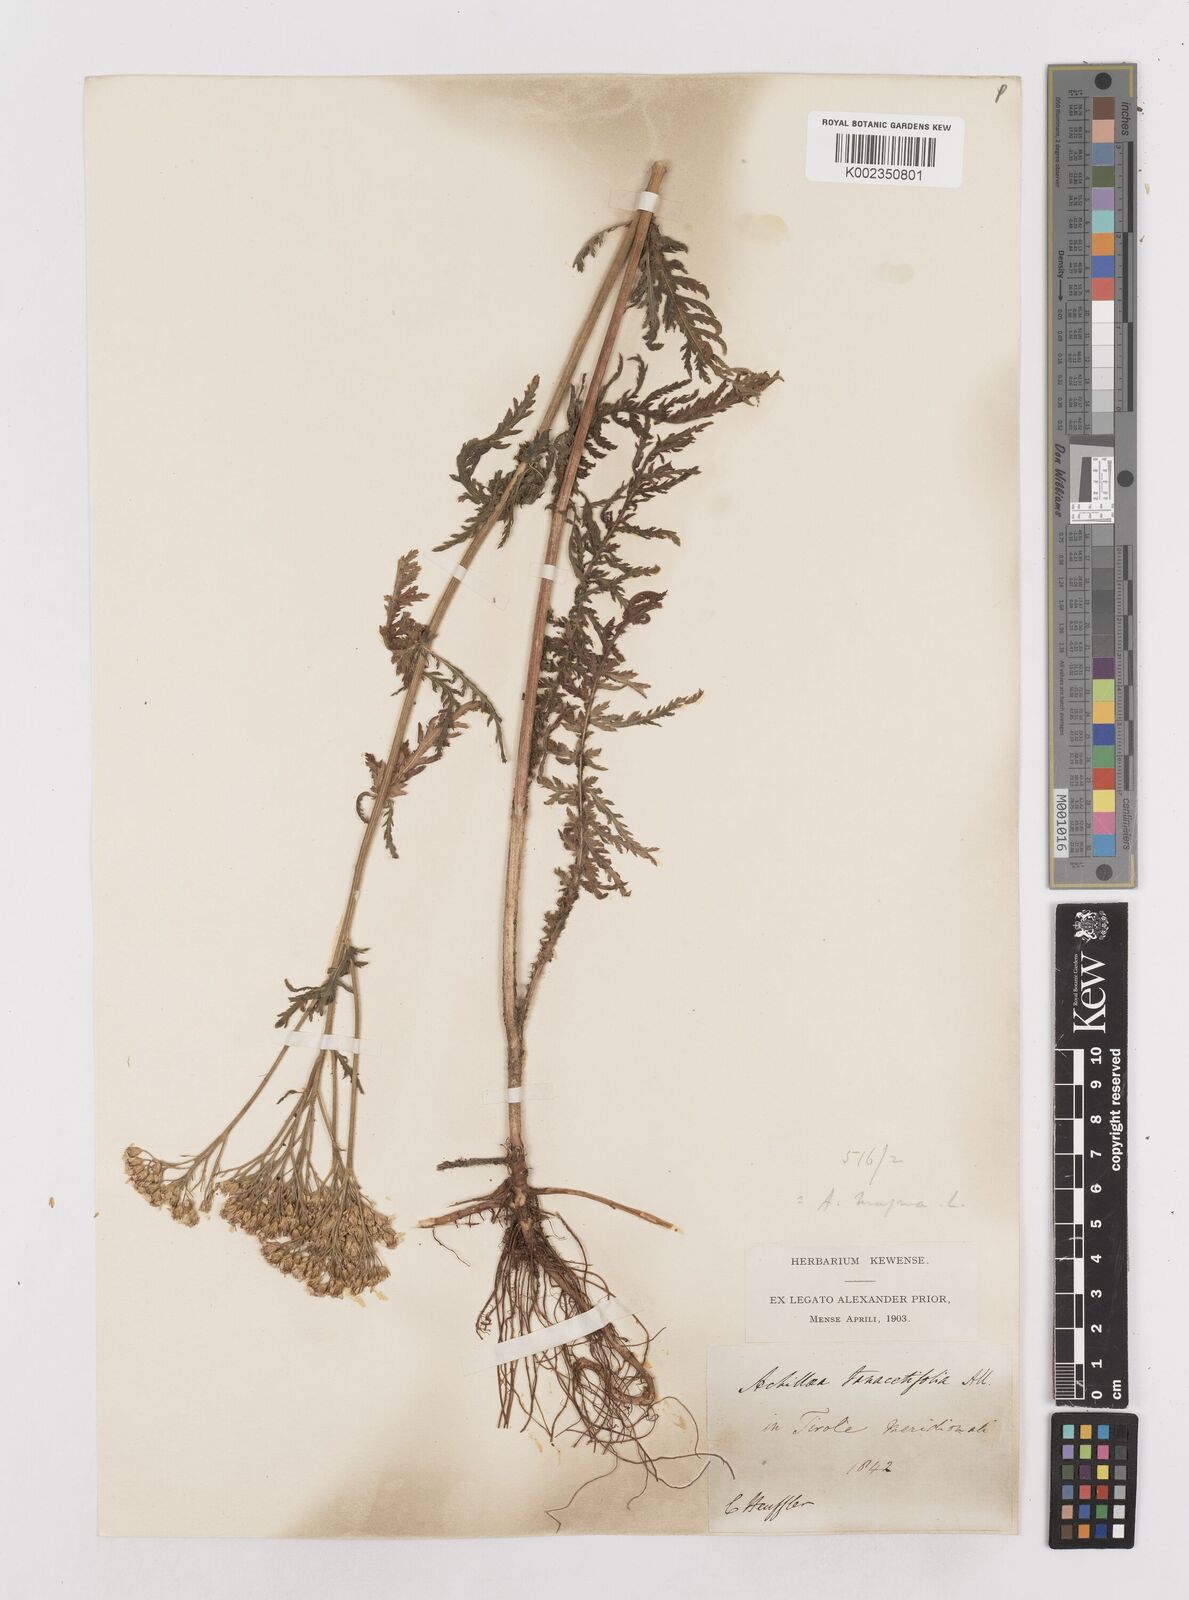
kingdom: Plantae
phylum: Tracheophyta
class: Magnoliopsida
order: Asterales
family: Asteraceae
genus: Achillea
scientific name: Achillea distans
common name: Tall yarrow
